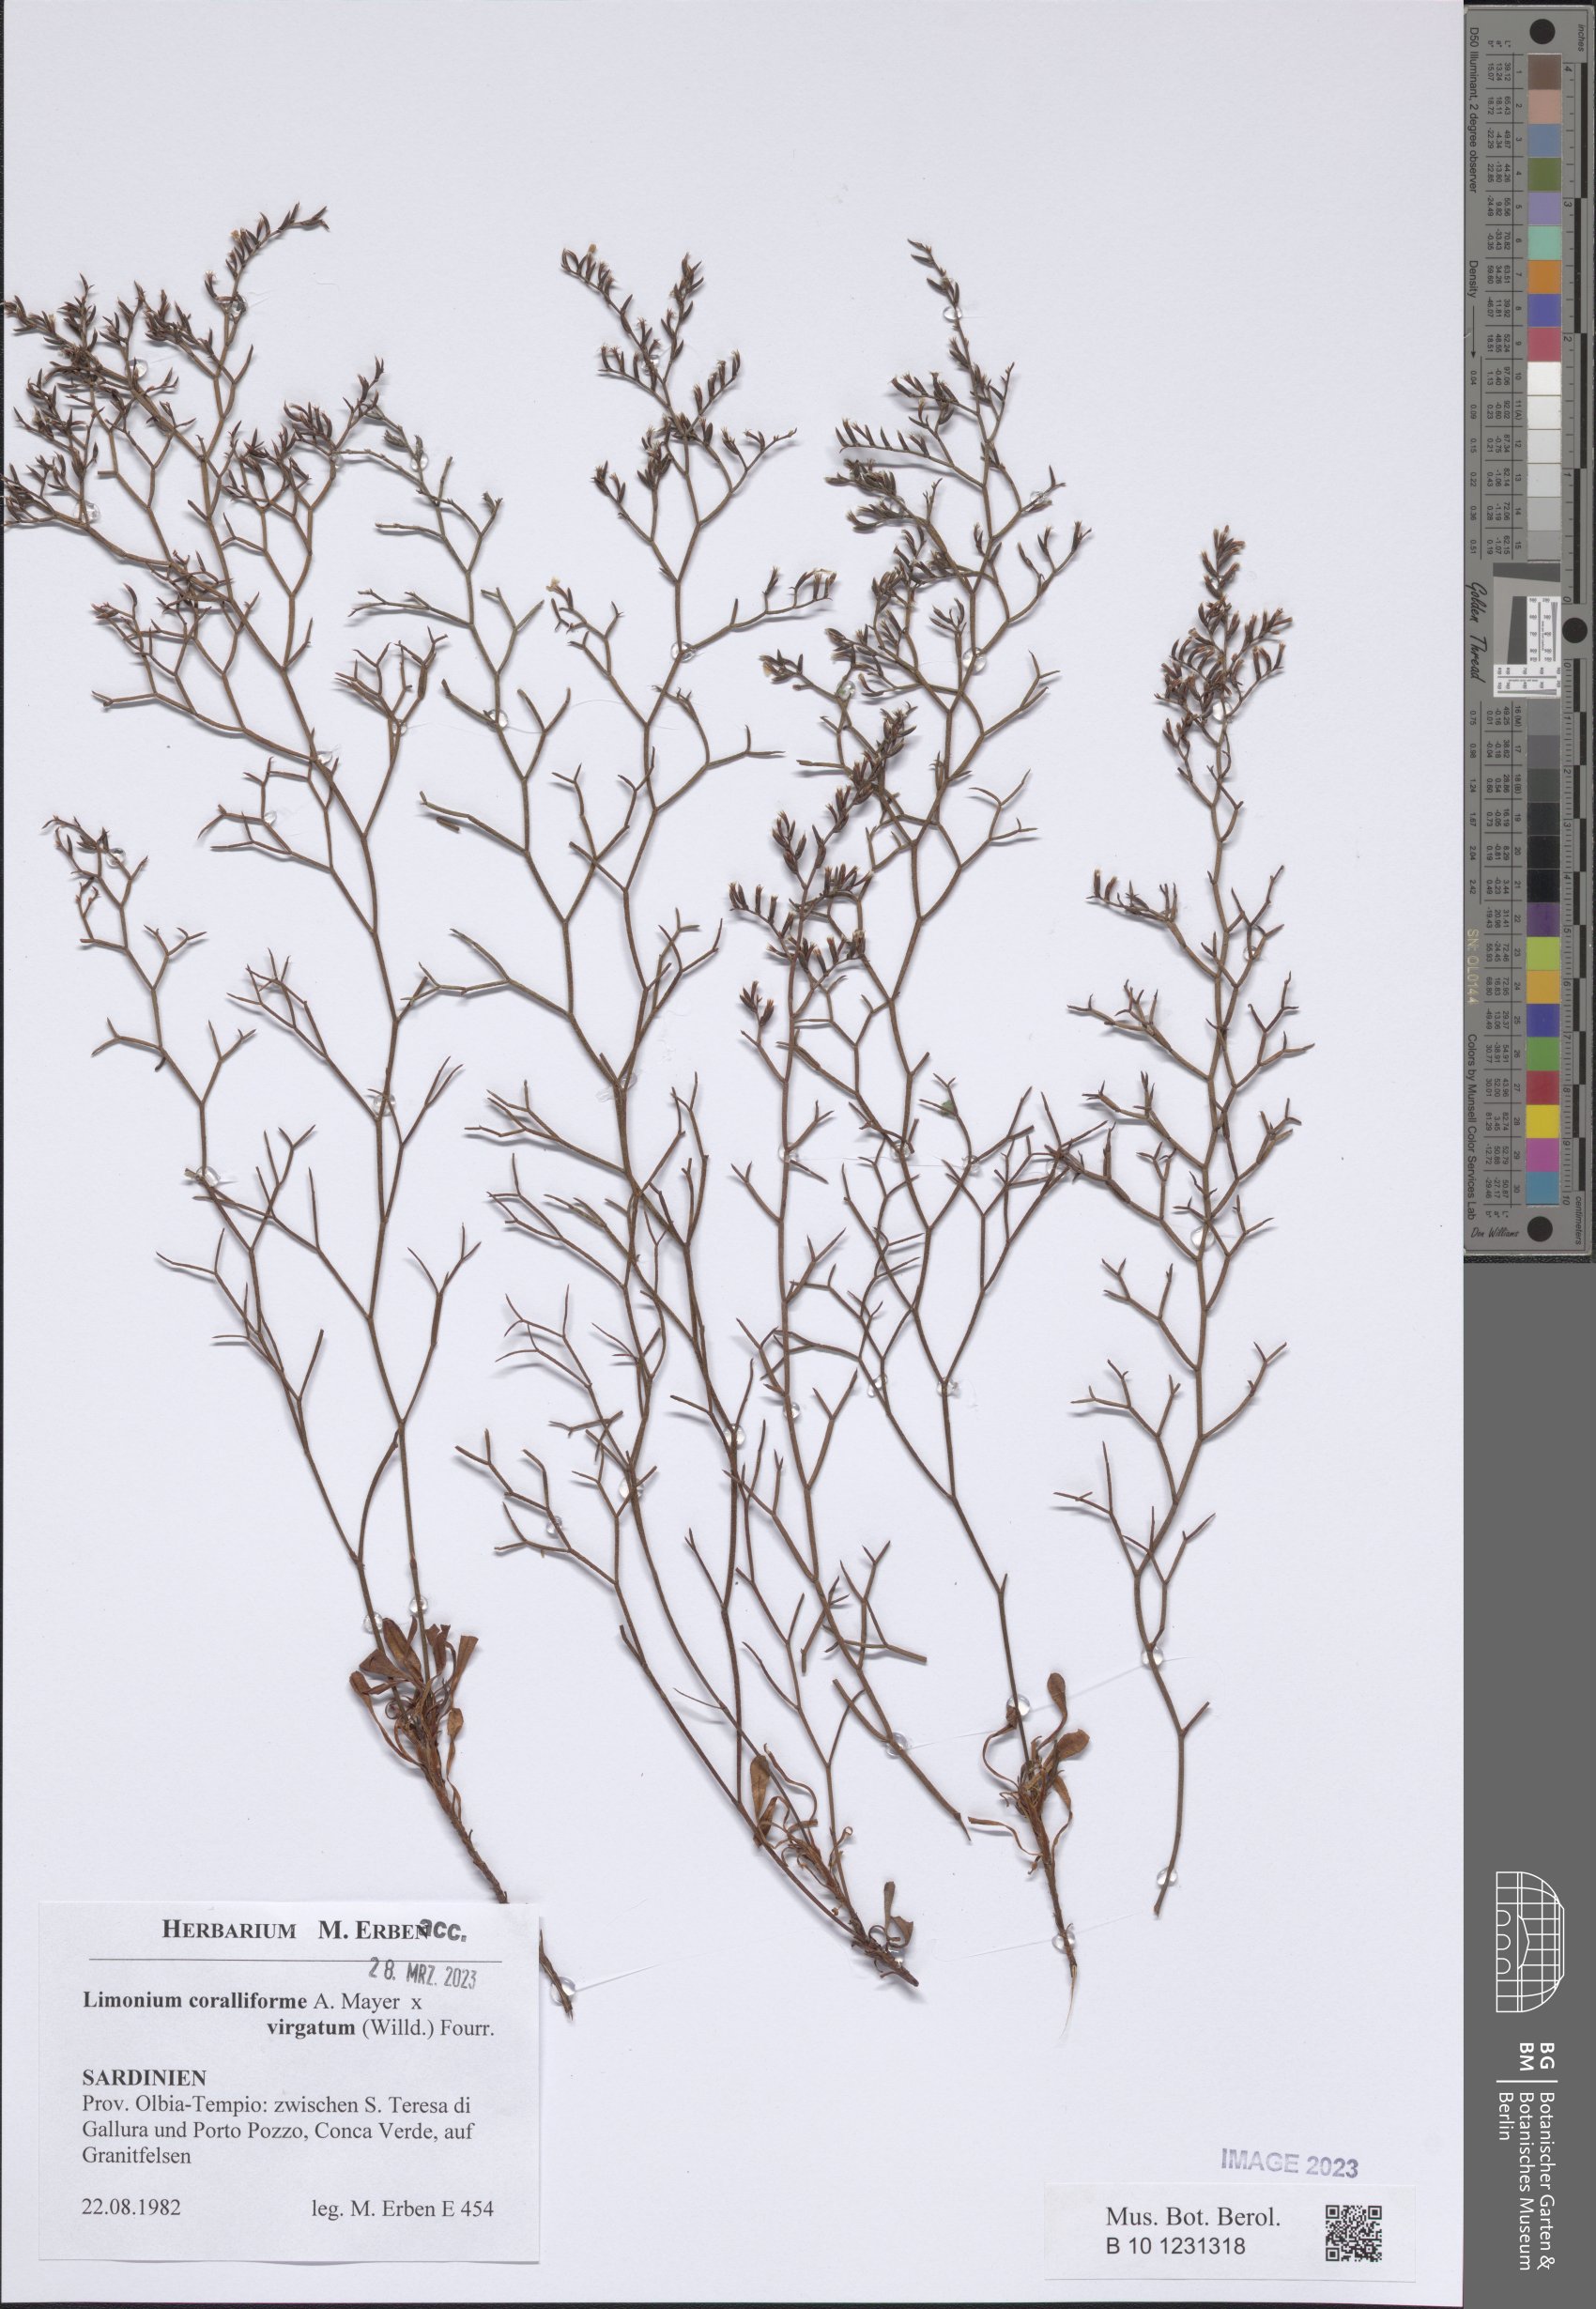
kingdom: Plantae
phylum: Tracheophyta
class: Magnoliopsida
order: Caryophyllales
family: Plumbaginaceae
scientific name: Plumbaginaceae
